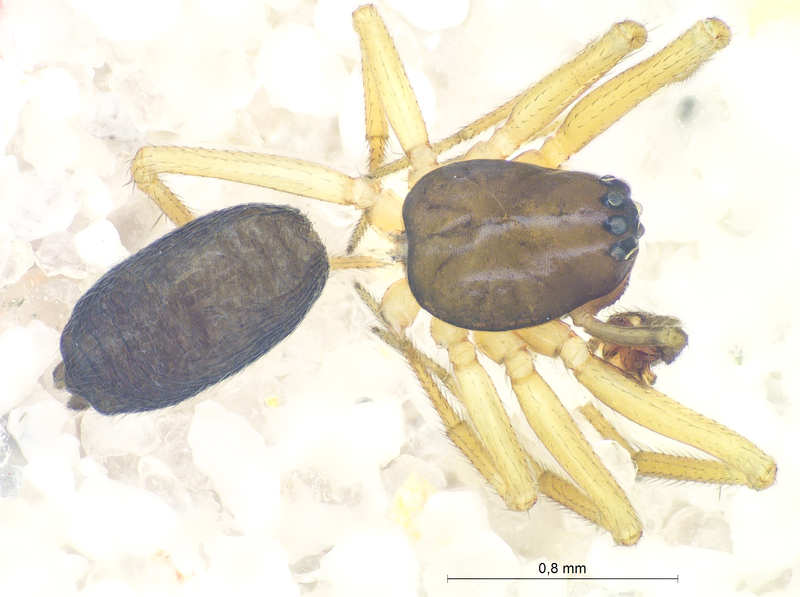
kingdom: Animalia
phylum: Arthropoda
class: Arachnida
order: Araneae
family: Linyphiidae
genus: Agyneta
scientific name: Agyneta ressli
